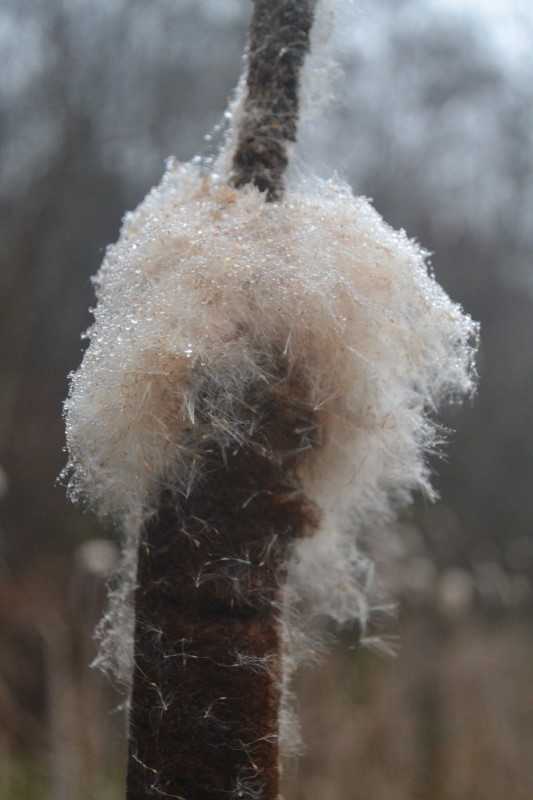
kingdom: Plantae
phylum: Tracheophyta
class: Liliopsida
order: Poales
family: Typhaceae
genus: Typha
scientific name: Typha latifolia
